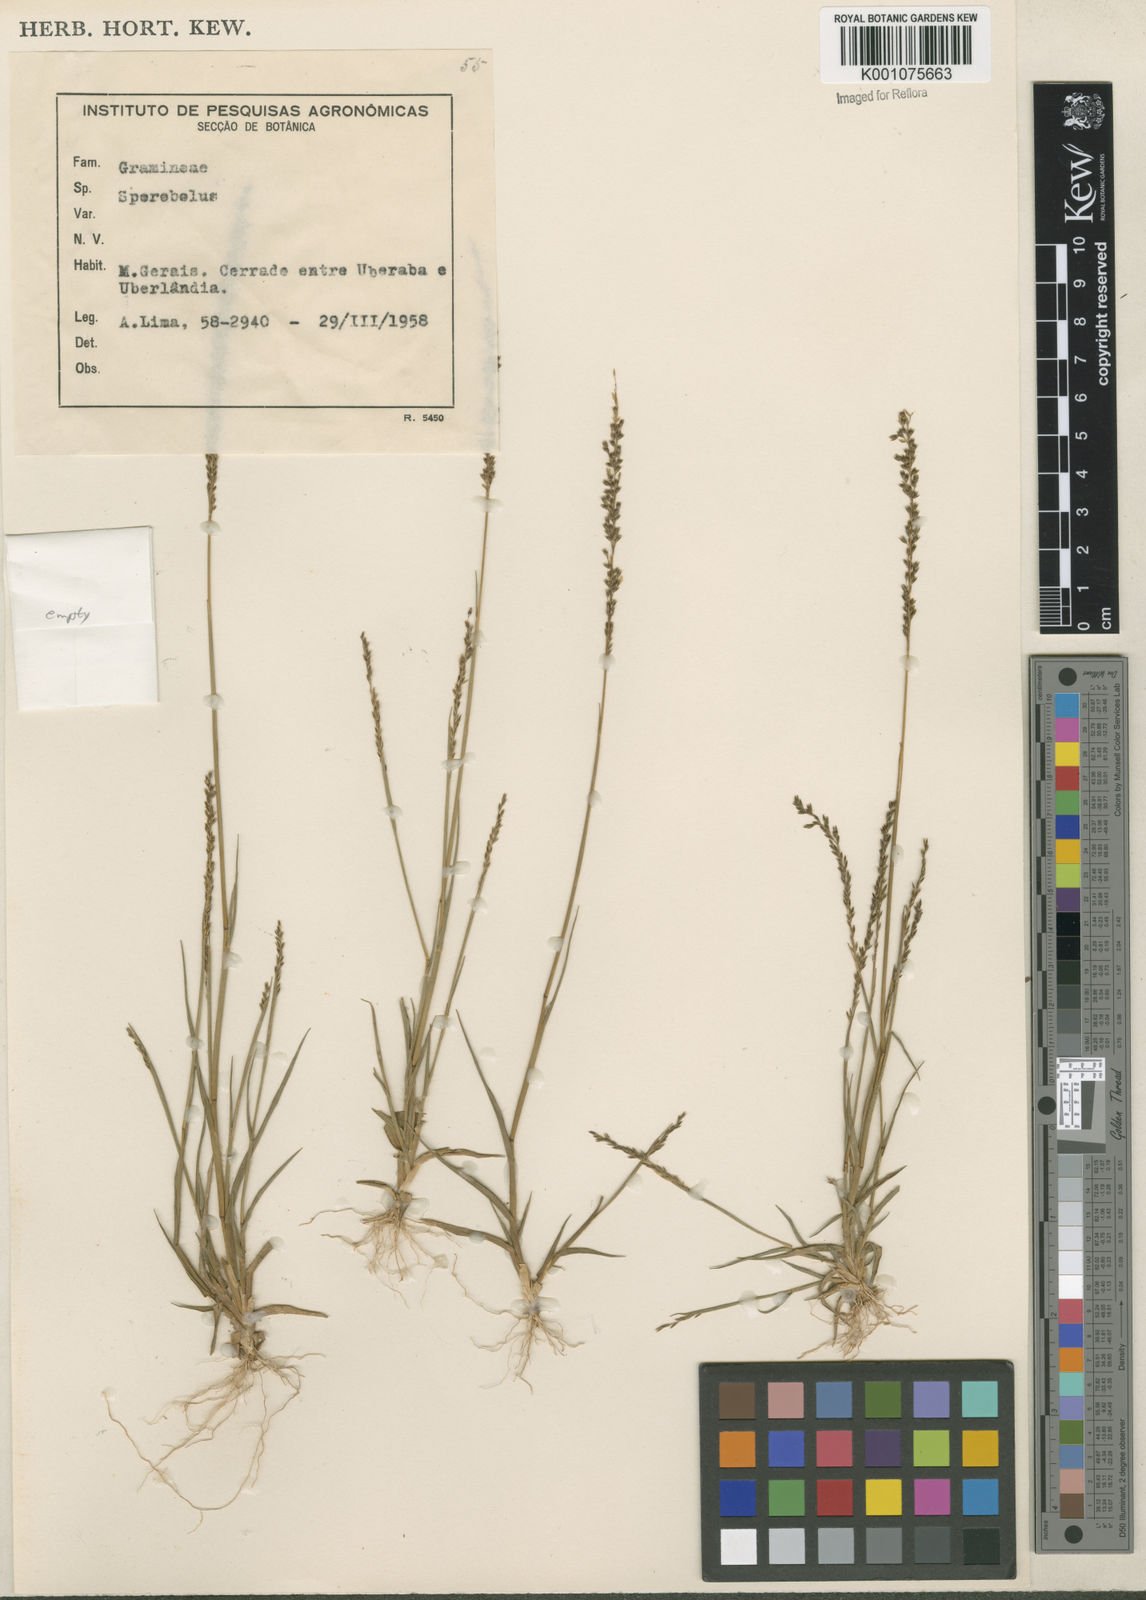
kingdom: Plantae
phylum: Tracheophyta
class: Liliopsida
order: Poales
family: Poaceae
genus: Sporobolus
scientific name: Sporobolus pilifer
